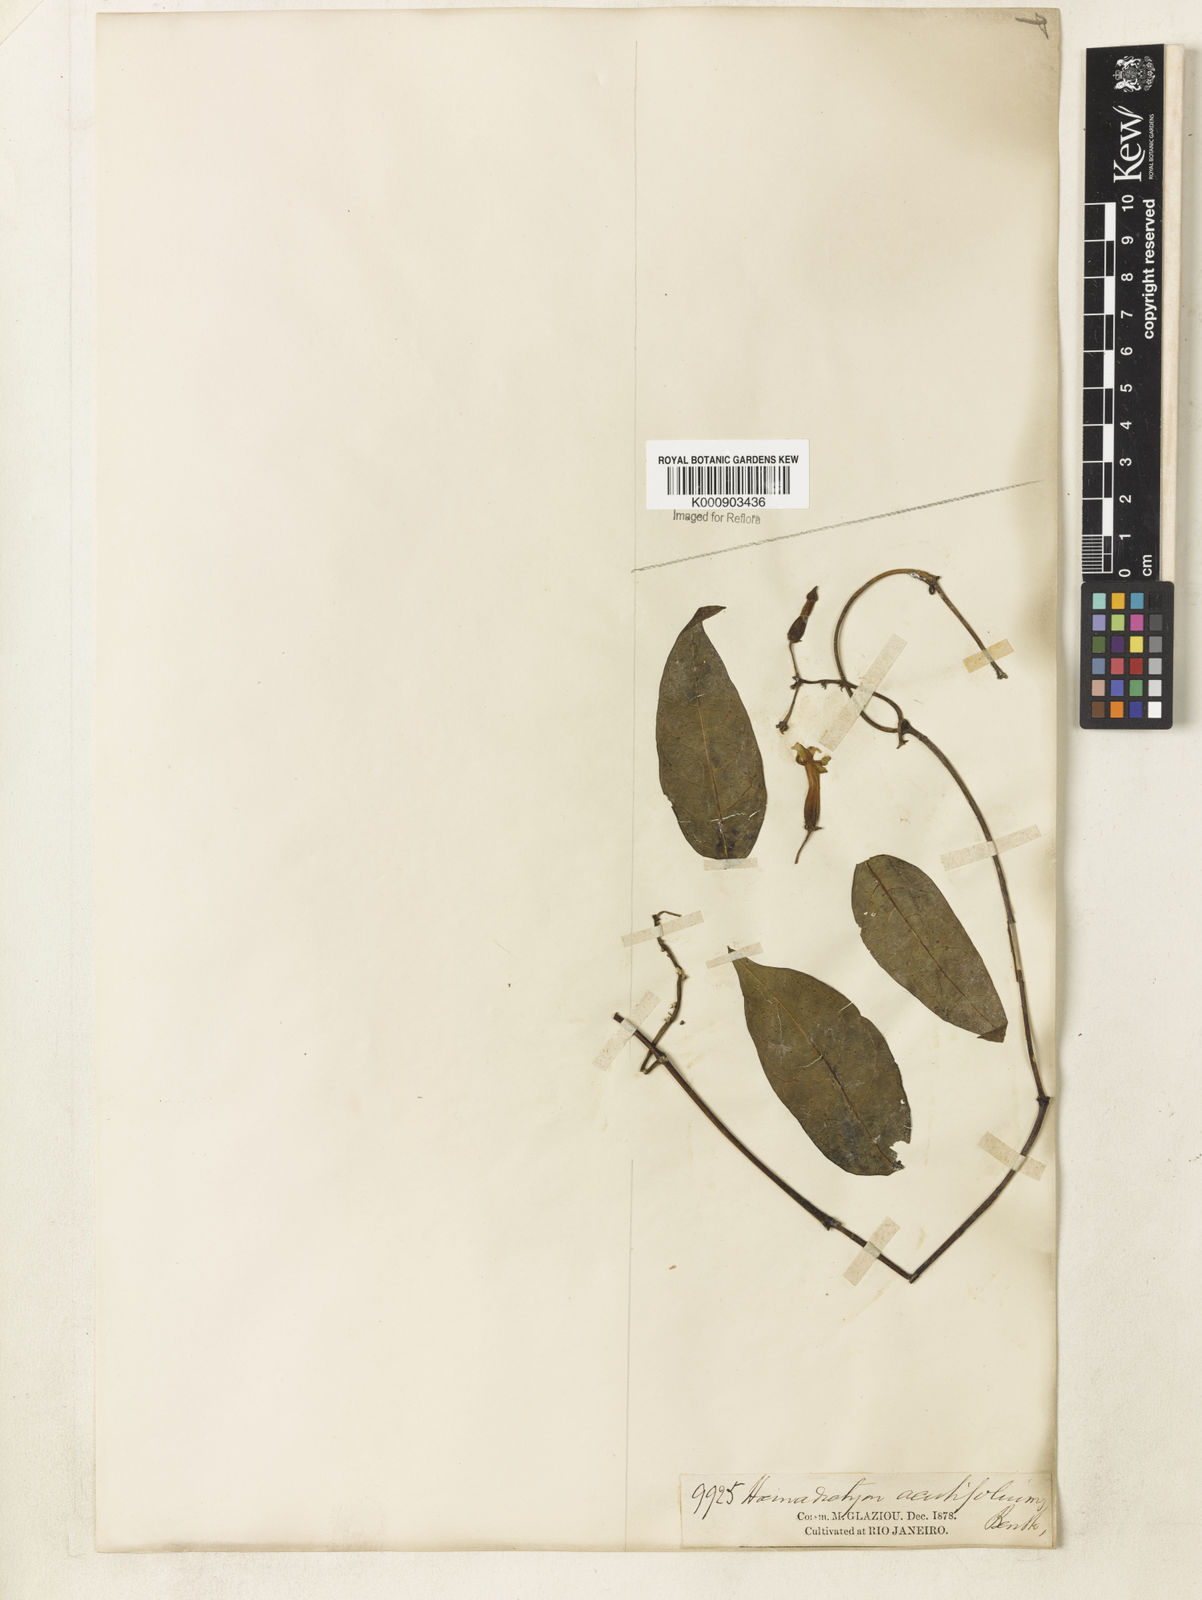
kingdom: Plantae
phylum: Tracheophyta
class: Magnoliopsida
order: Gentianales
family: Apocynaceae
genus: Prestonia
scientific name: Prestonia
